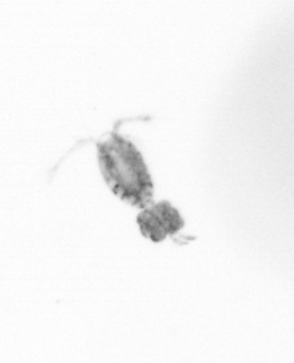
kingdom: Animalia
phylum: Arthropoda
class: Copepoda
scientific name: Copepoda
